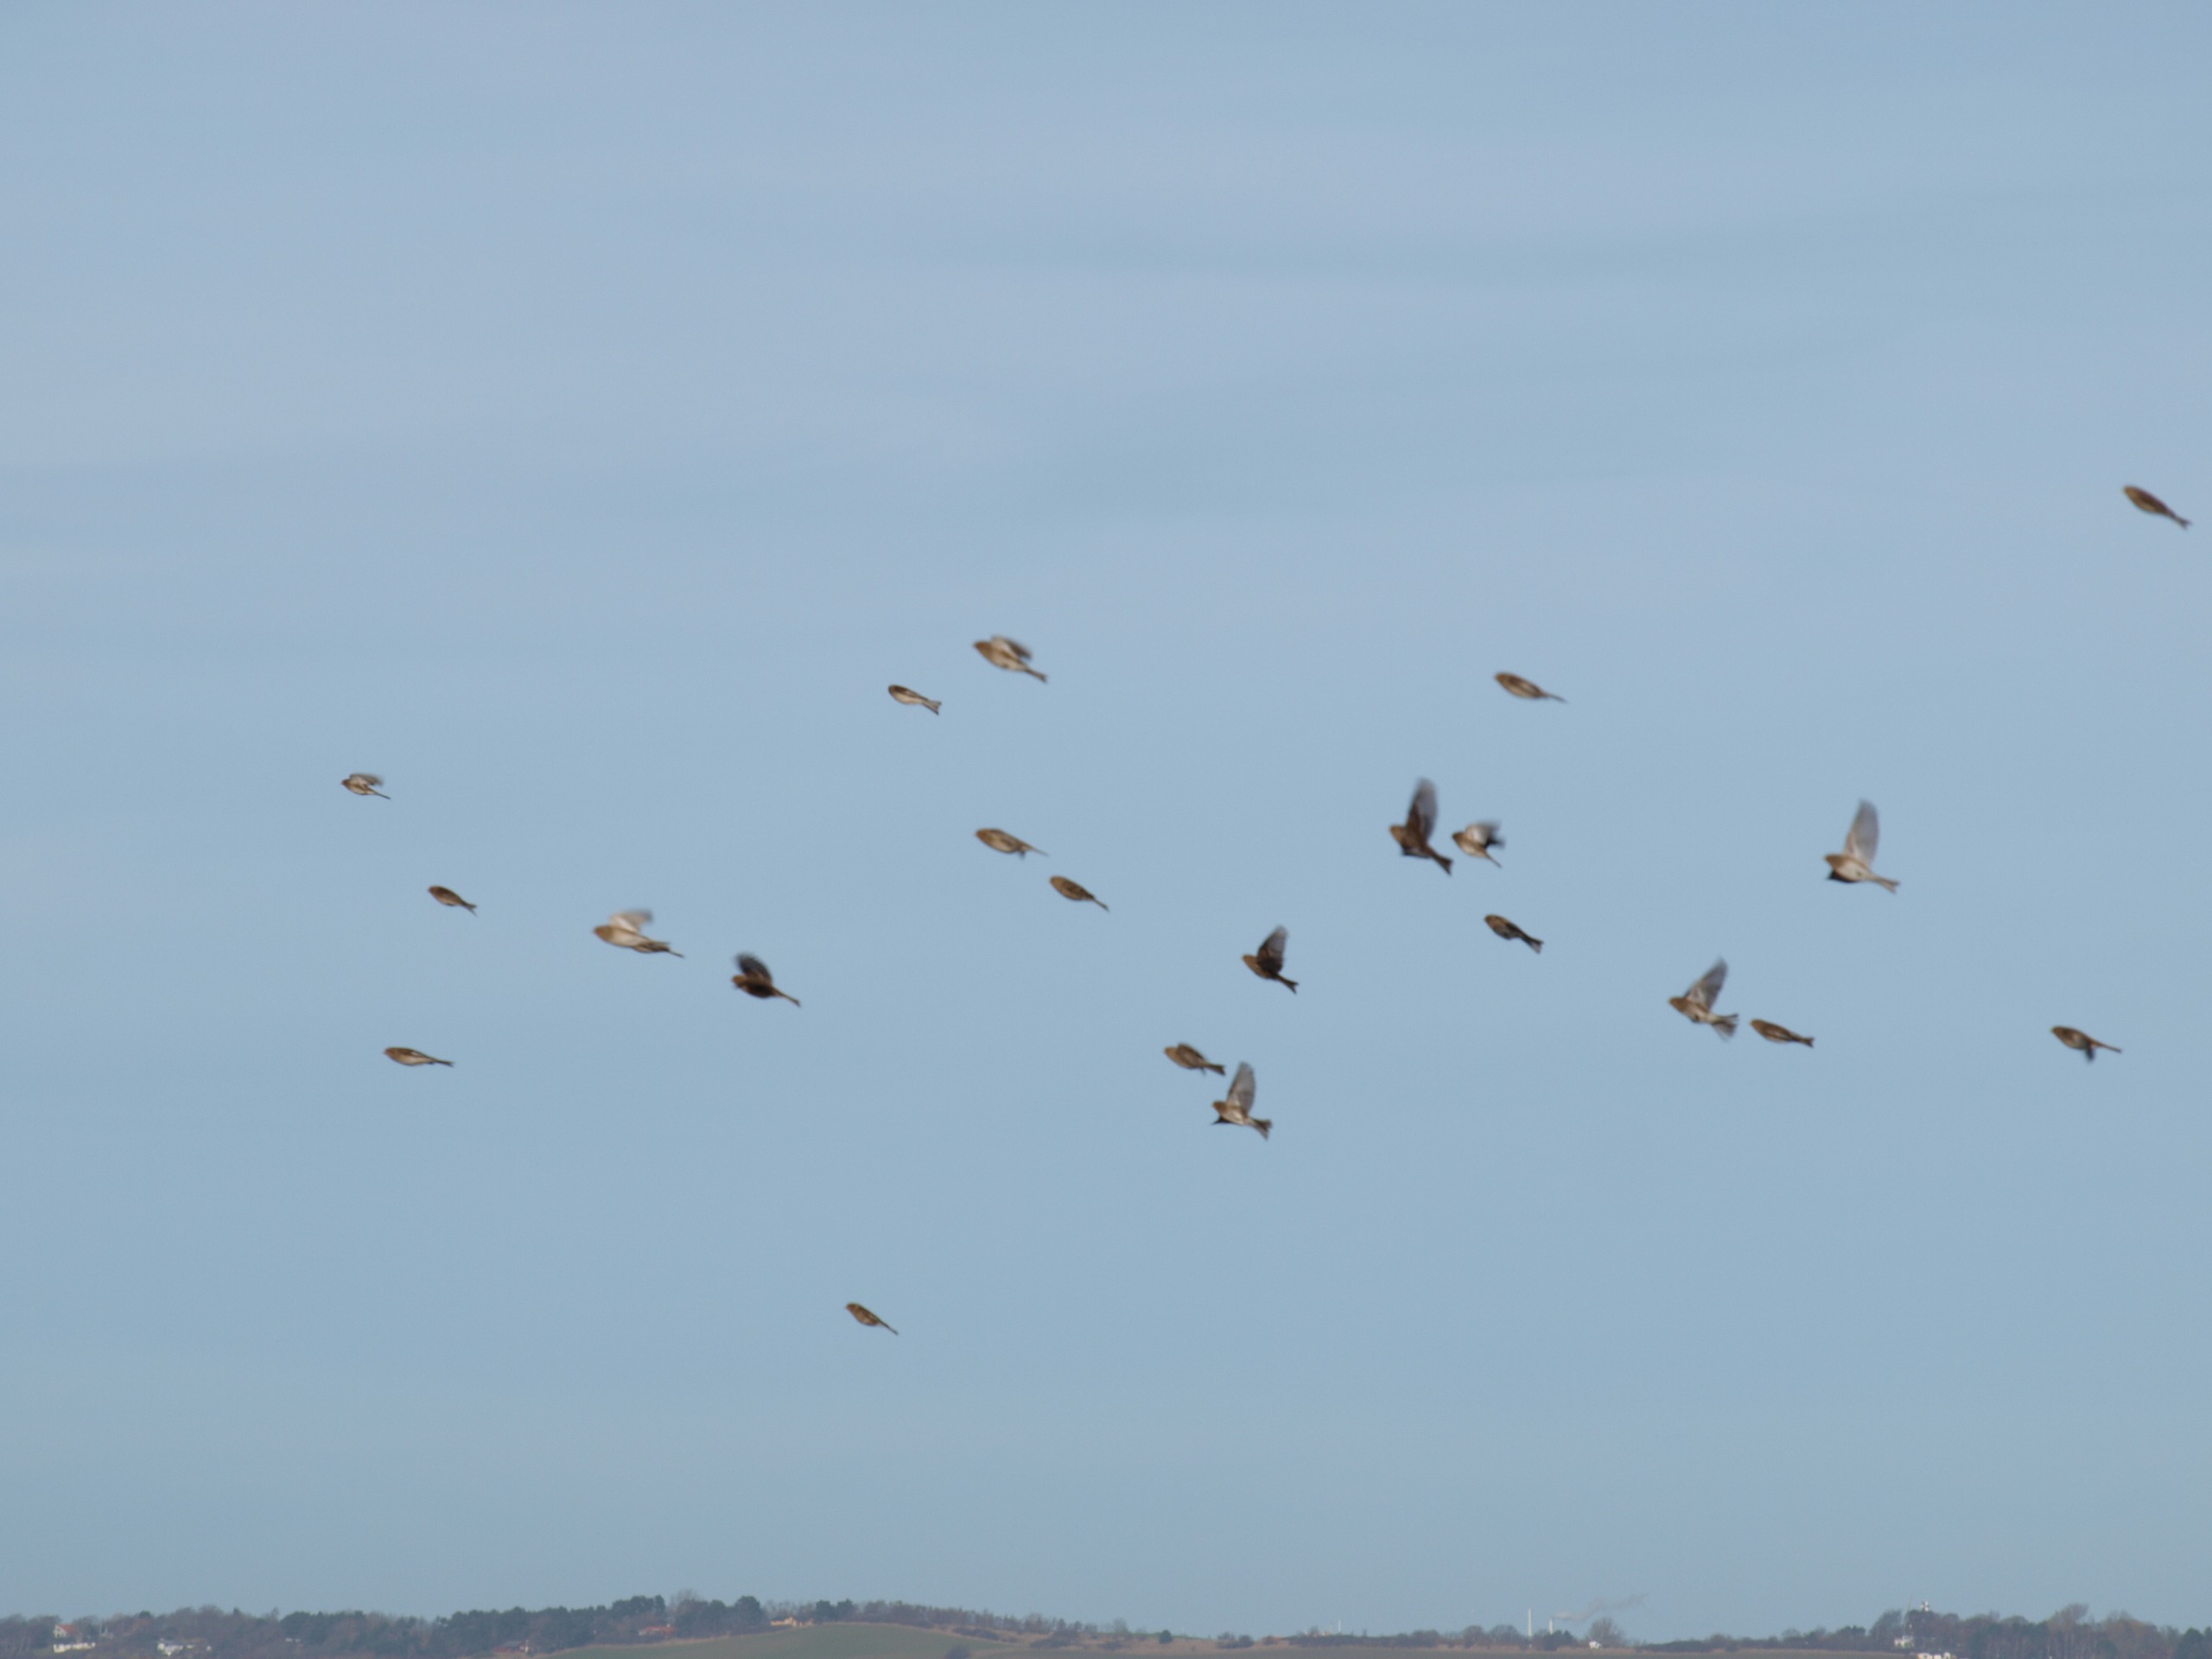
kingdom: Animalia
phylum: Chordata
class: Aves
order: Passeriformes
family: Fringillidae
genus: Linaria
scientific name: Linaria flavirostris
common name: Bjergirisk
